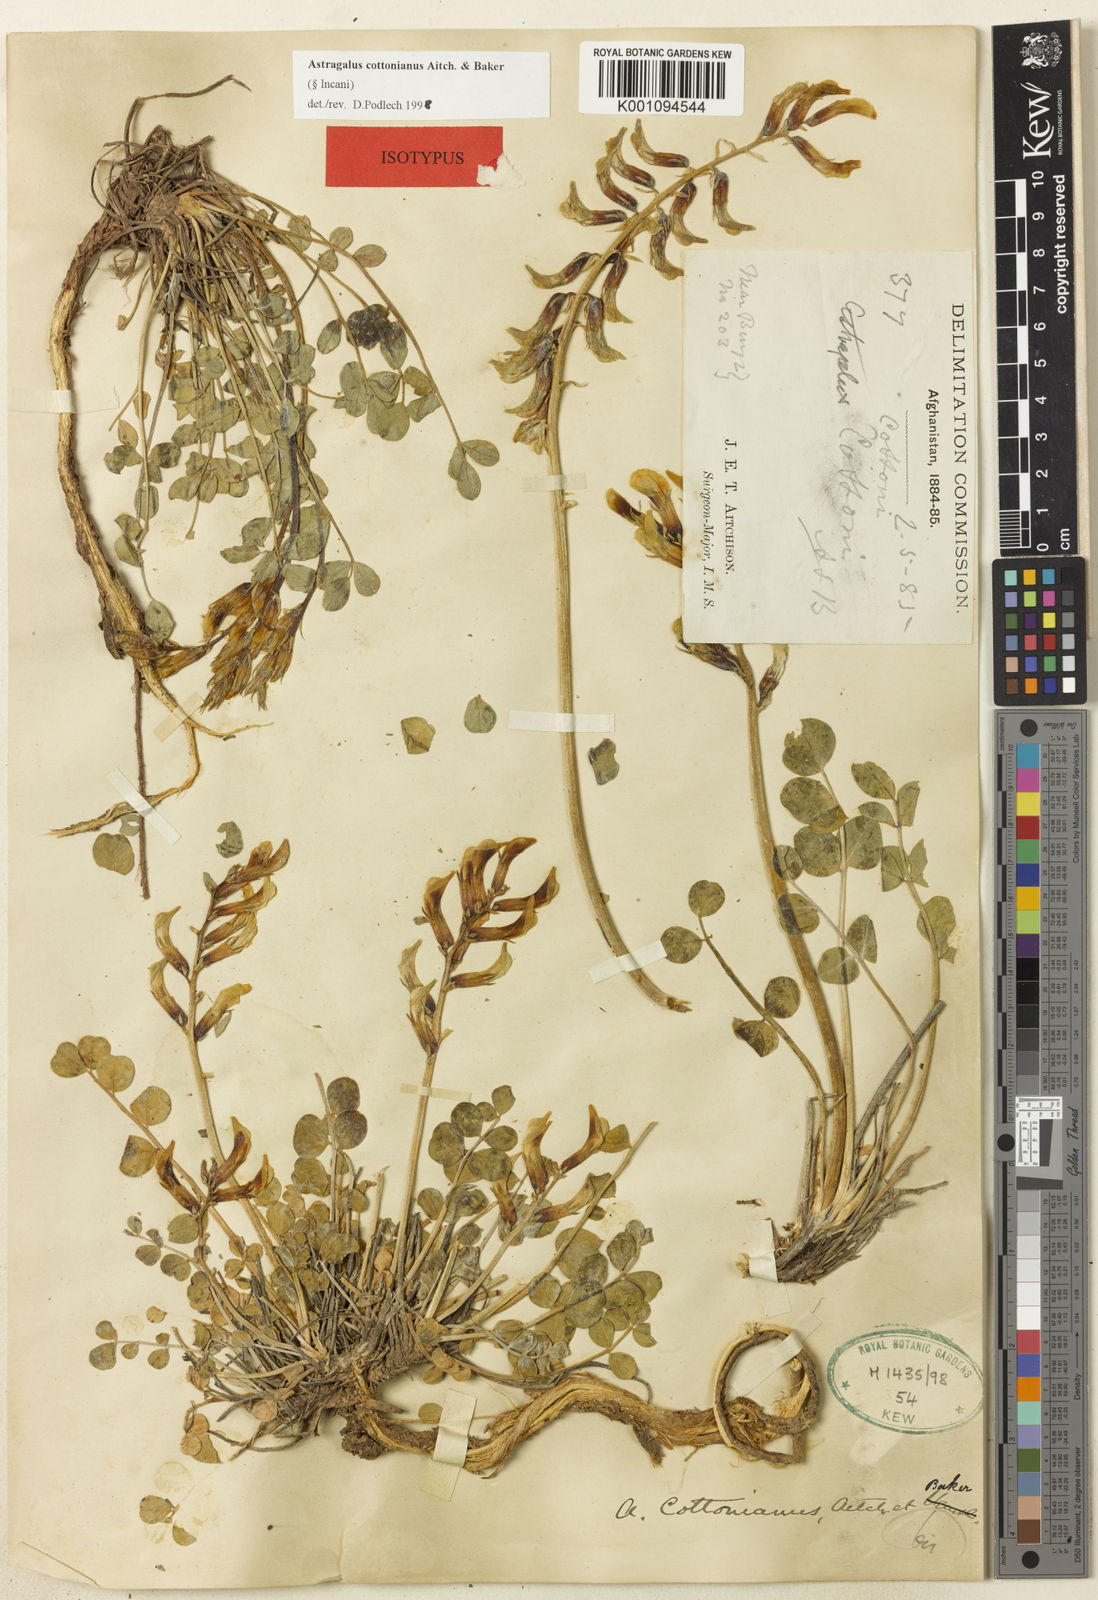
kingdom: Plantae
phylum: Tracheophyta
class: Magnoliopsida
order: Fabales
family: Fabaceae
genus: Astragalus
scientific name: Astragalus
